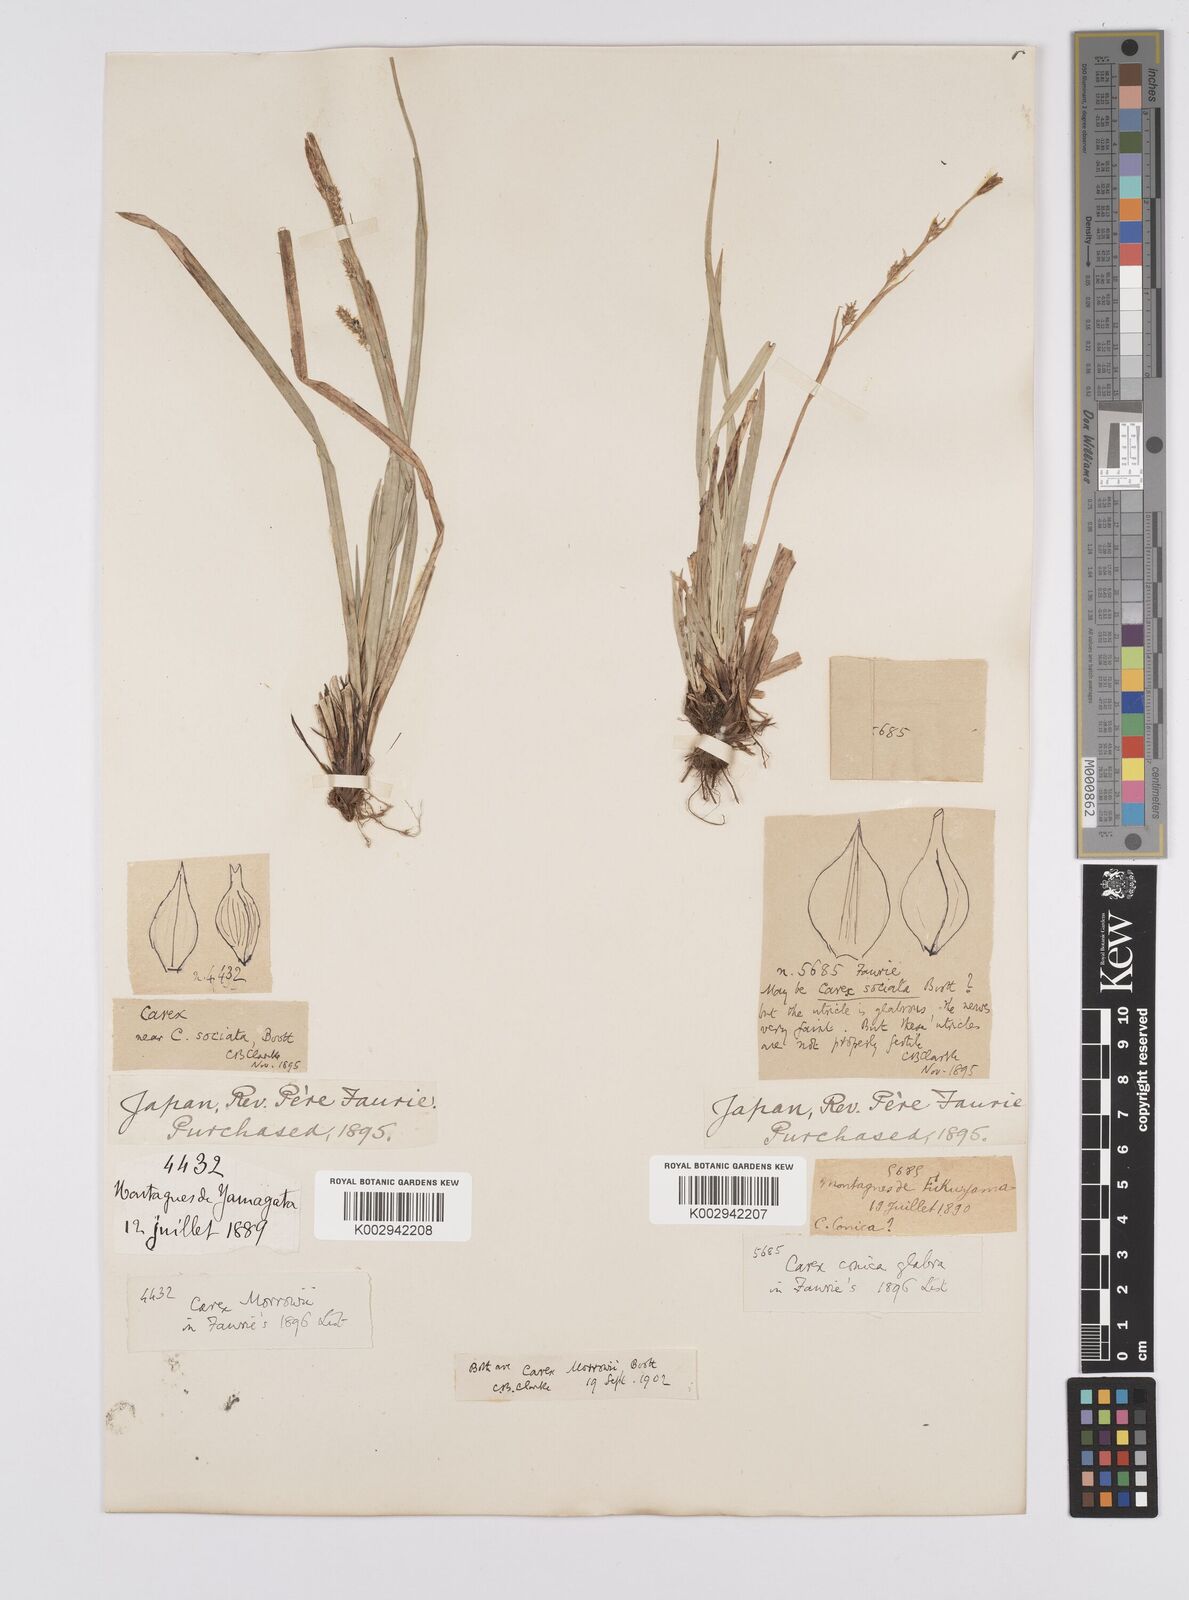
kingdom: Plantae
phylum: Tracheophyta
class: Liliopsida
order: Poales
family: Cyperaceae
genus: Carex
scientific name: Carex morrowii
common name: Japanese sedge
